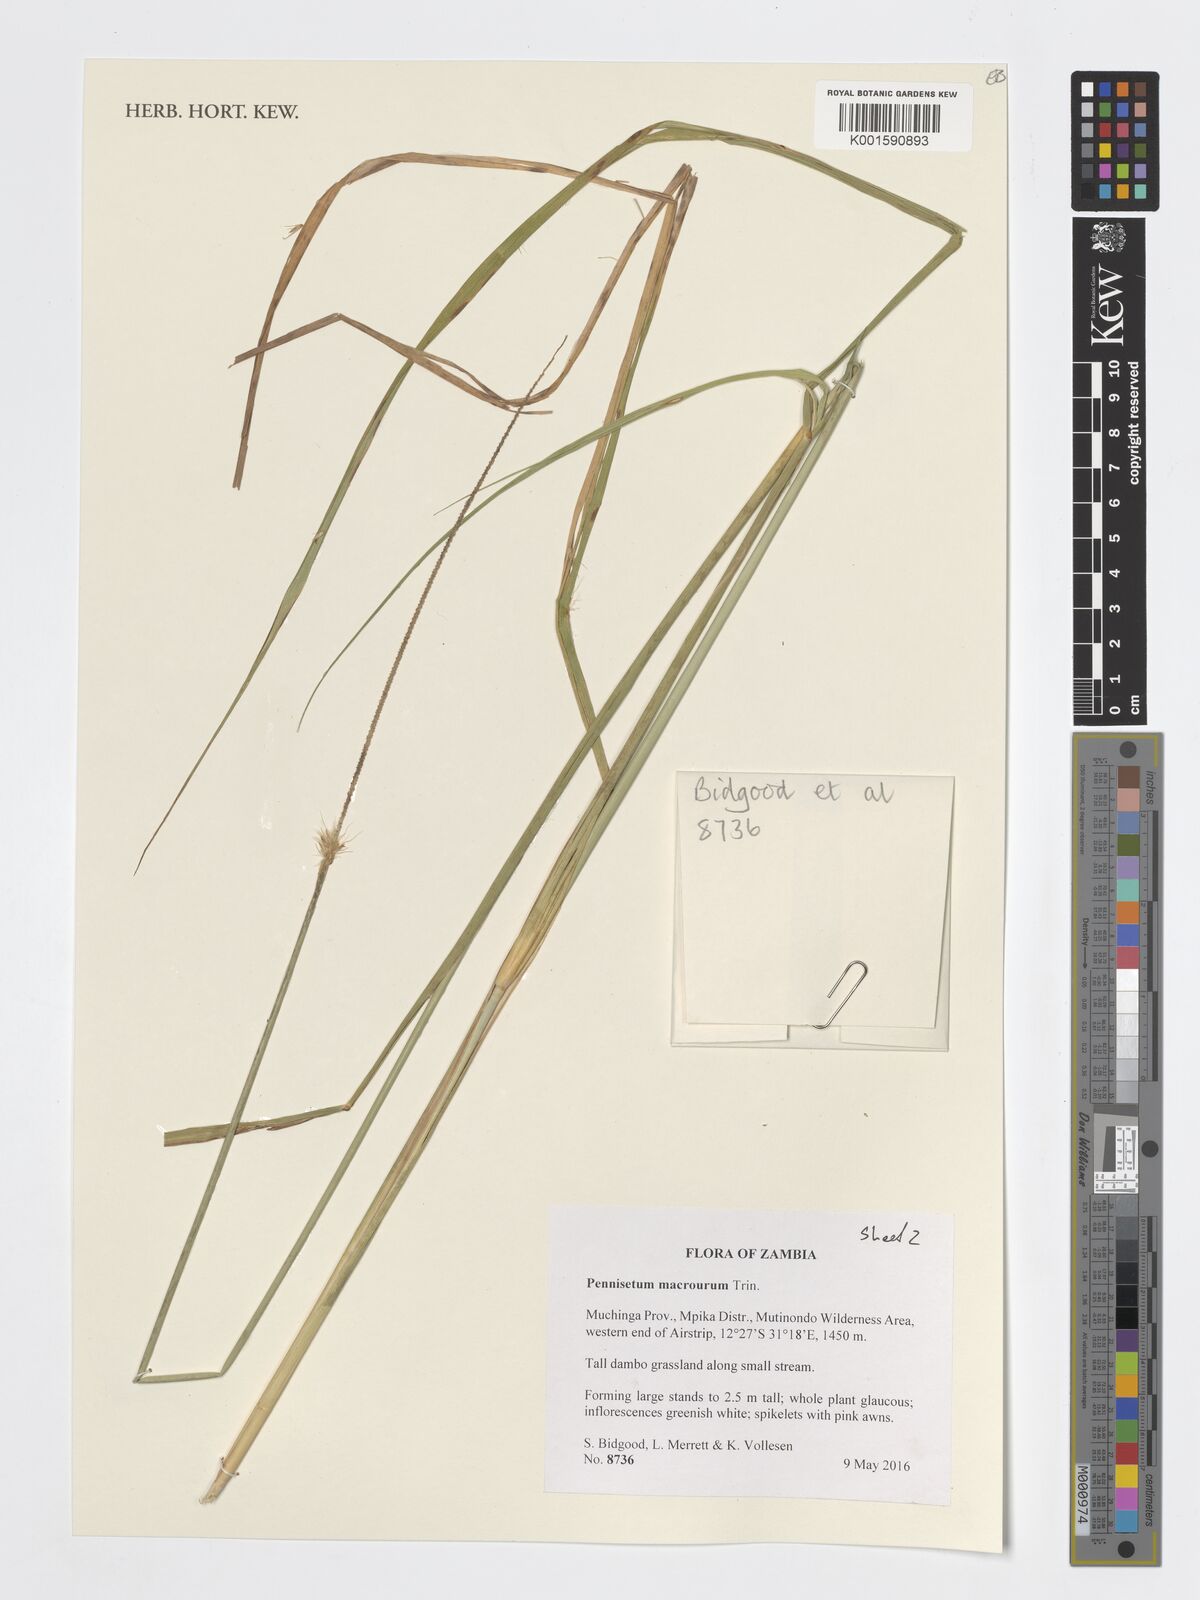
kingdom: Plantae
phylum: Tracheophyta
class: Liliopsida
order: Poales
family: Poaceae
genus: Cenchrus
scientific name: Cenchrus caudatus
